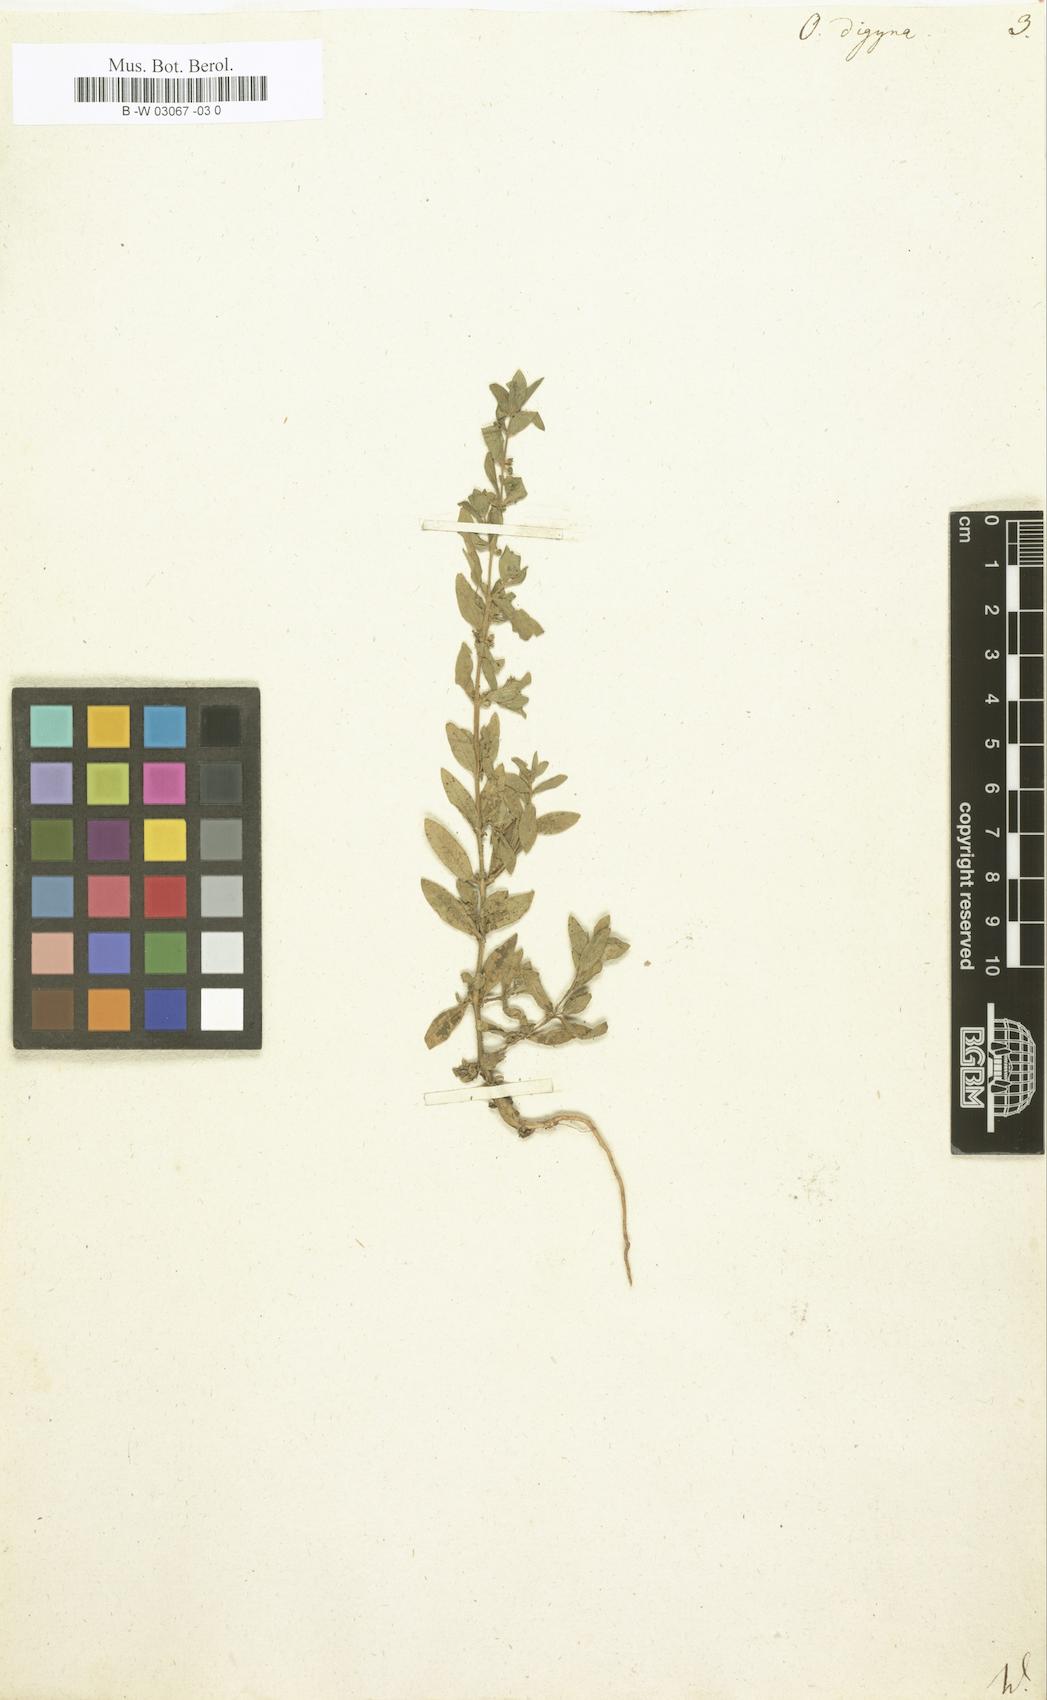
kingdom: Plantae
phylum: Tracheophyta
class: Magnoliopsida
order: Vahliales
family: Vahliaceae
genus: Vahlia
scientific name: Vahlia digyna
